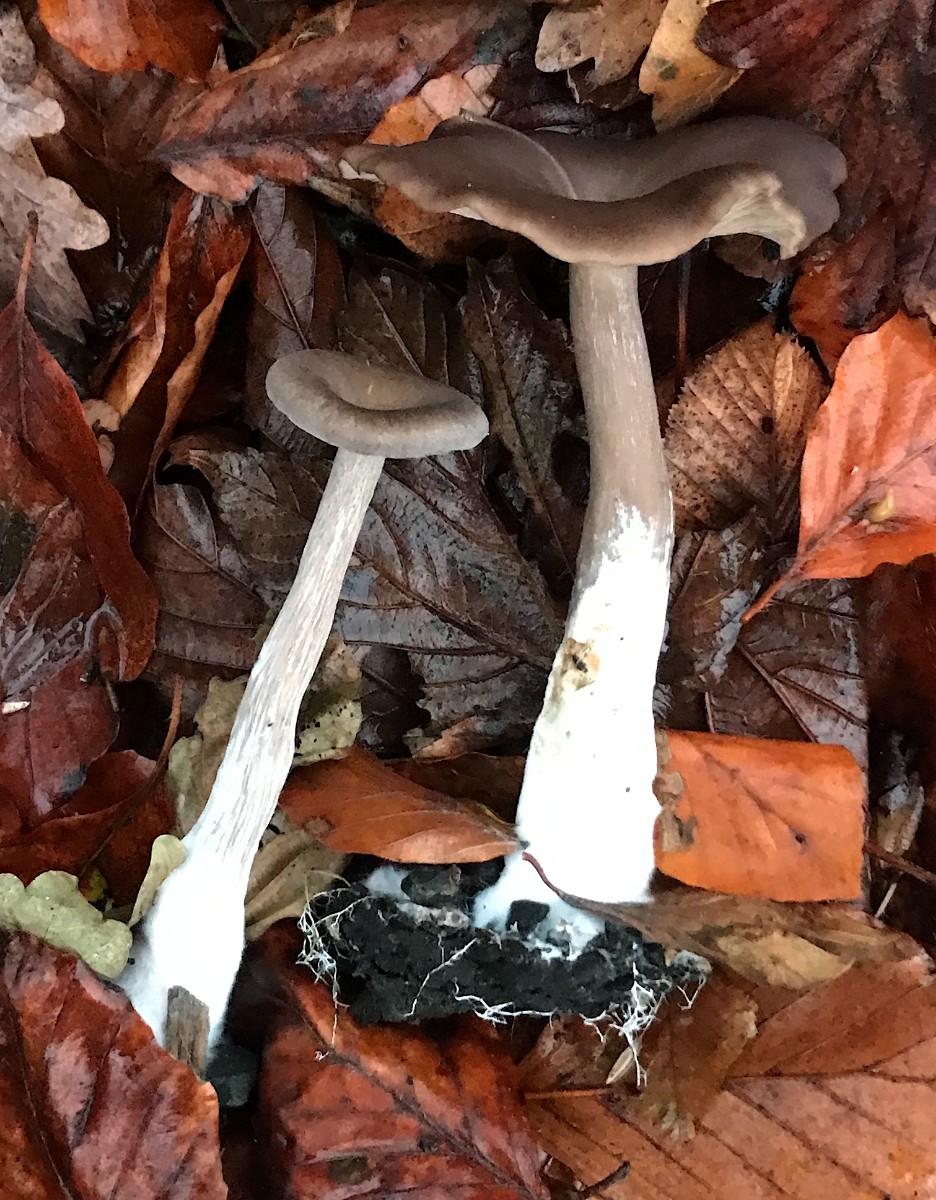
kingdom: Fungi
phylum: Basidiomycota
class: Agaricomycetes
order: Agaricales
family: Pseudoclitocybaceae
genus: Pseudoclitocybe
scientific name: Pseudoclitocybe cyathiformis
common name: almindelig bægertragthat
